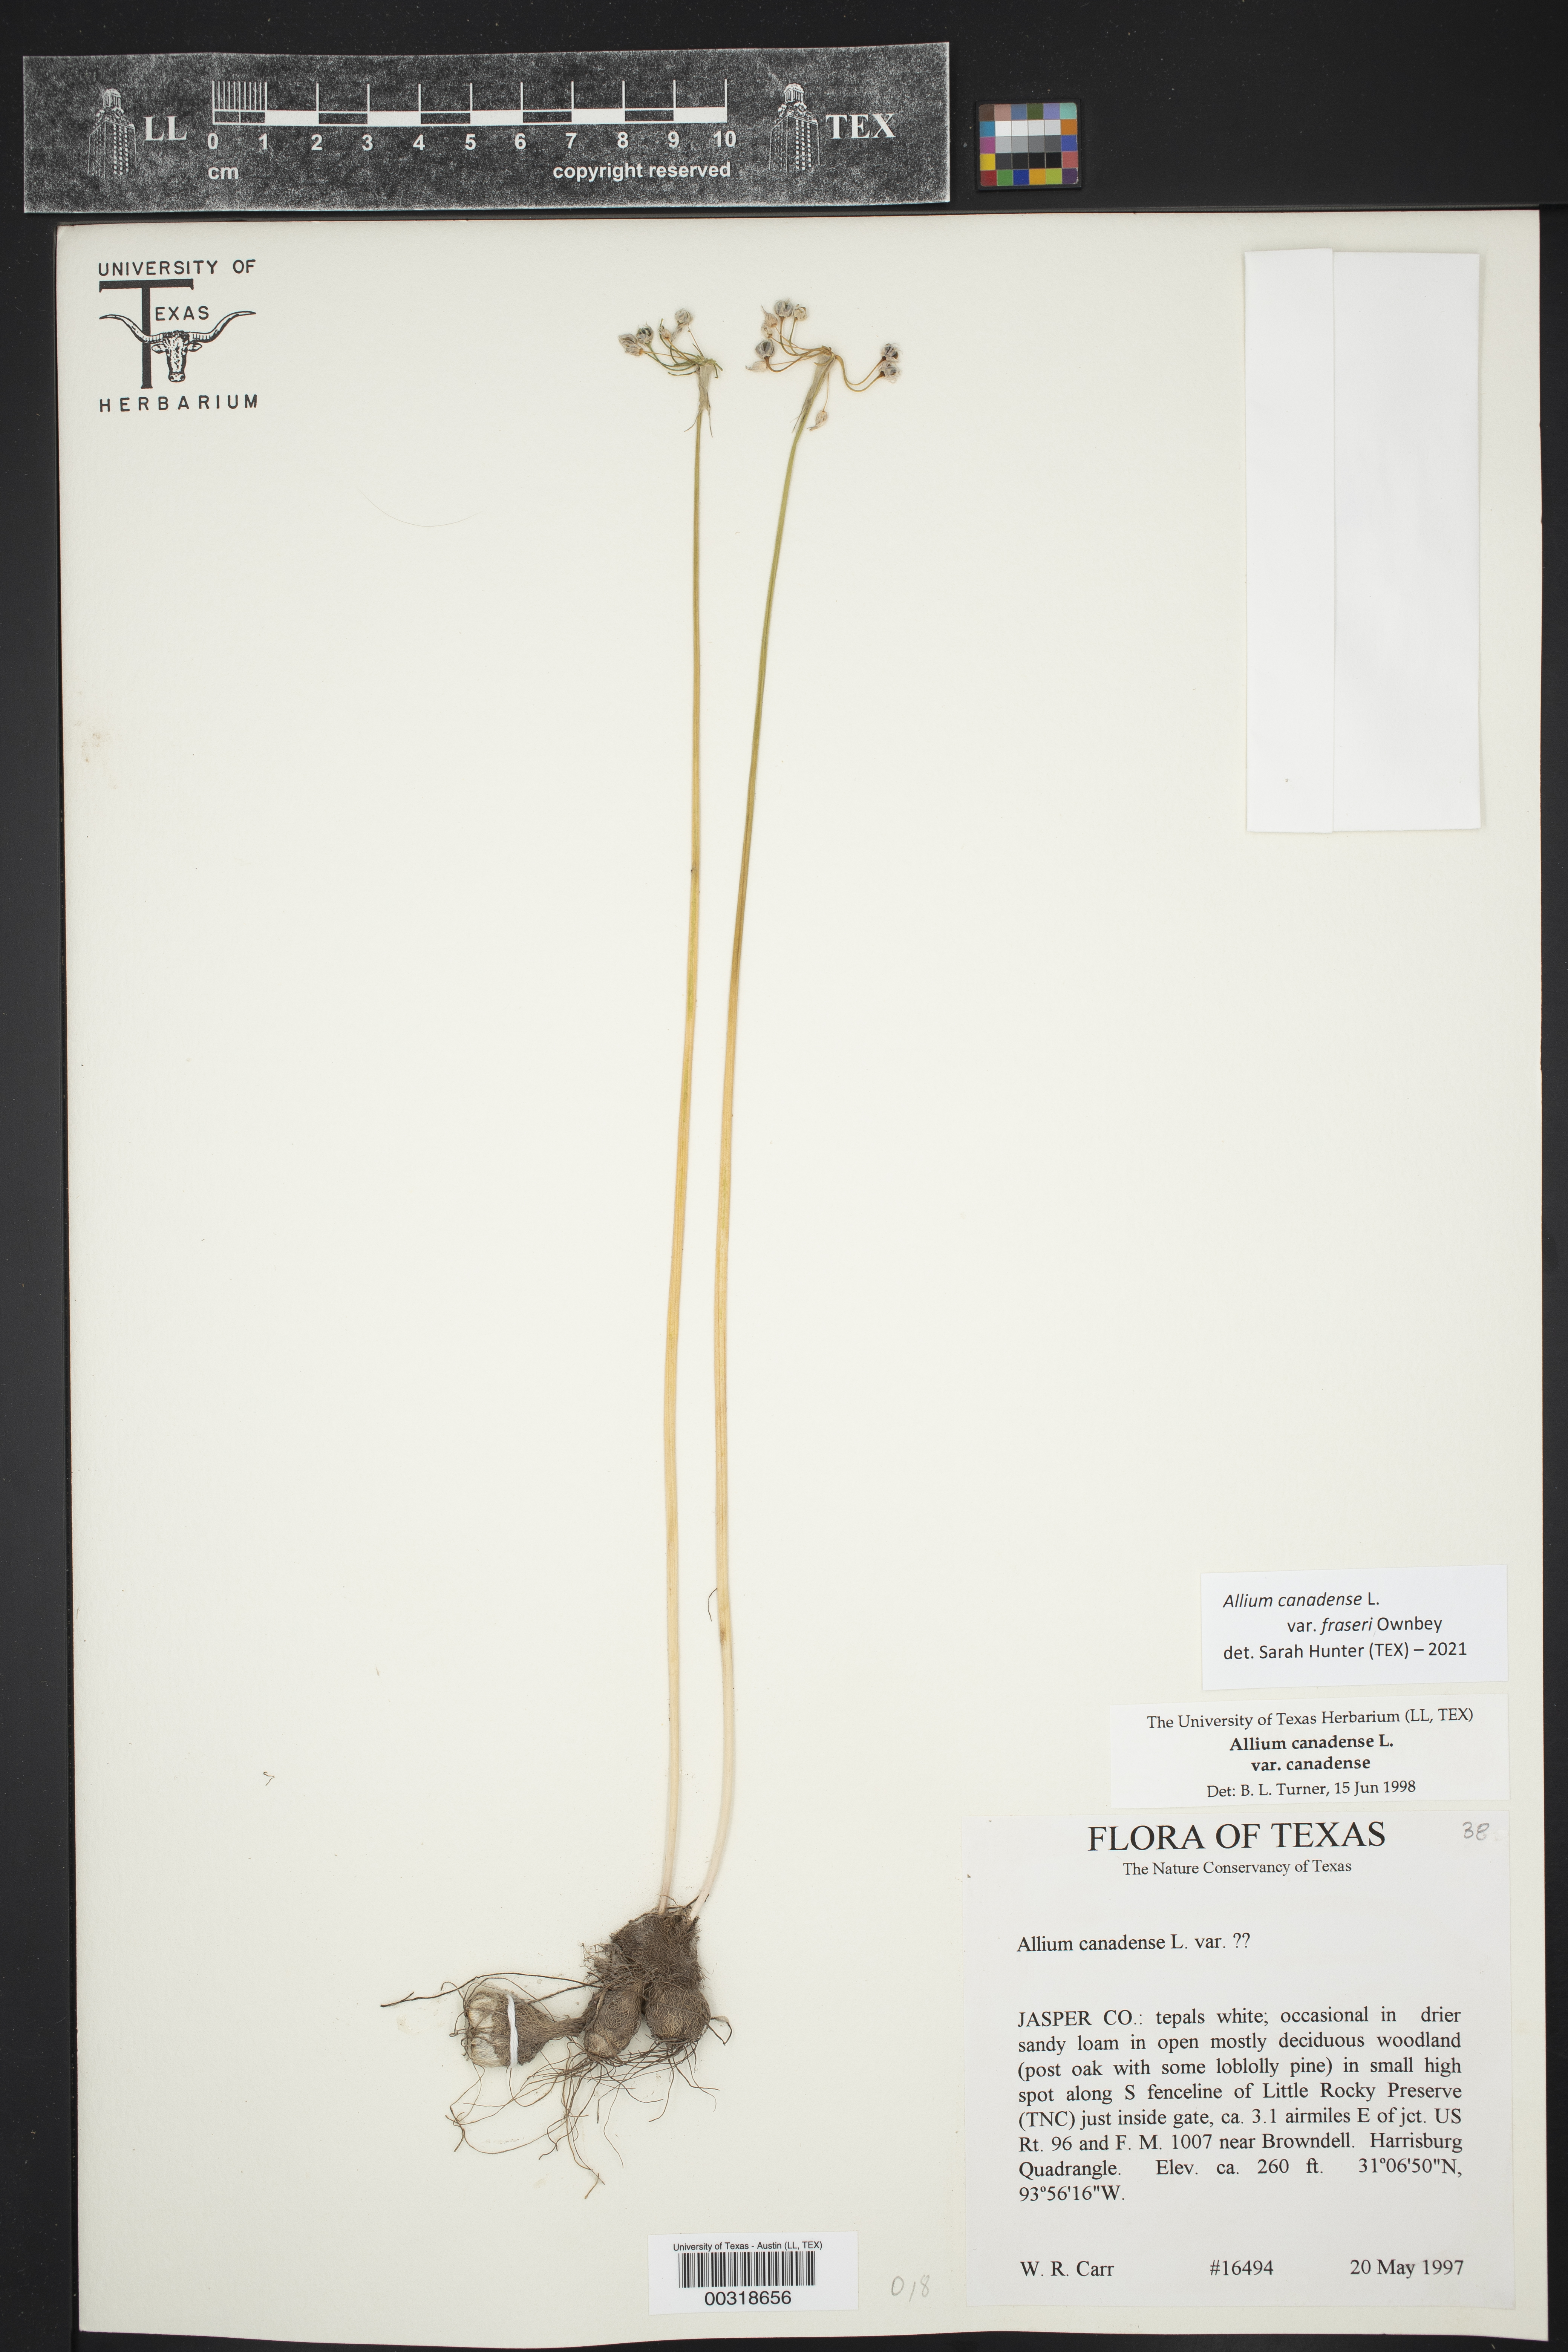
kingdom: Plantae
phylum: Tracheophyta
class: Liliopsida
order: Asparagales
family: Amaryllidaceae
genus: Allium
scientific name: Allium fraseri
